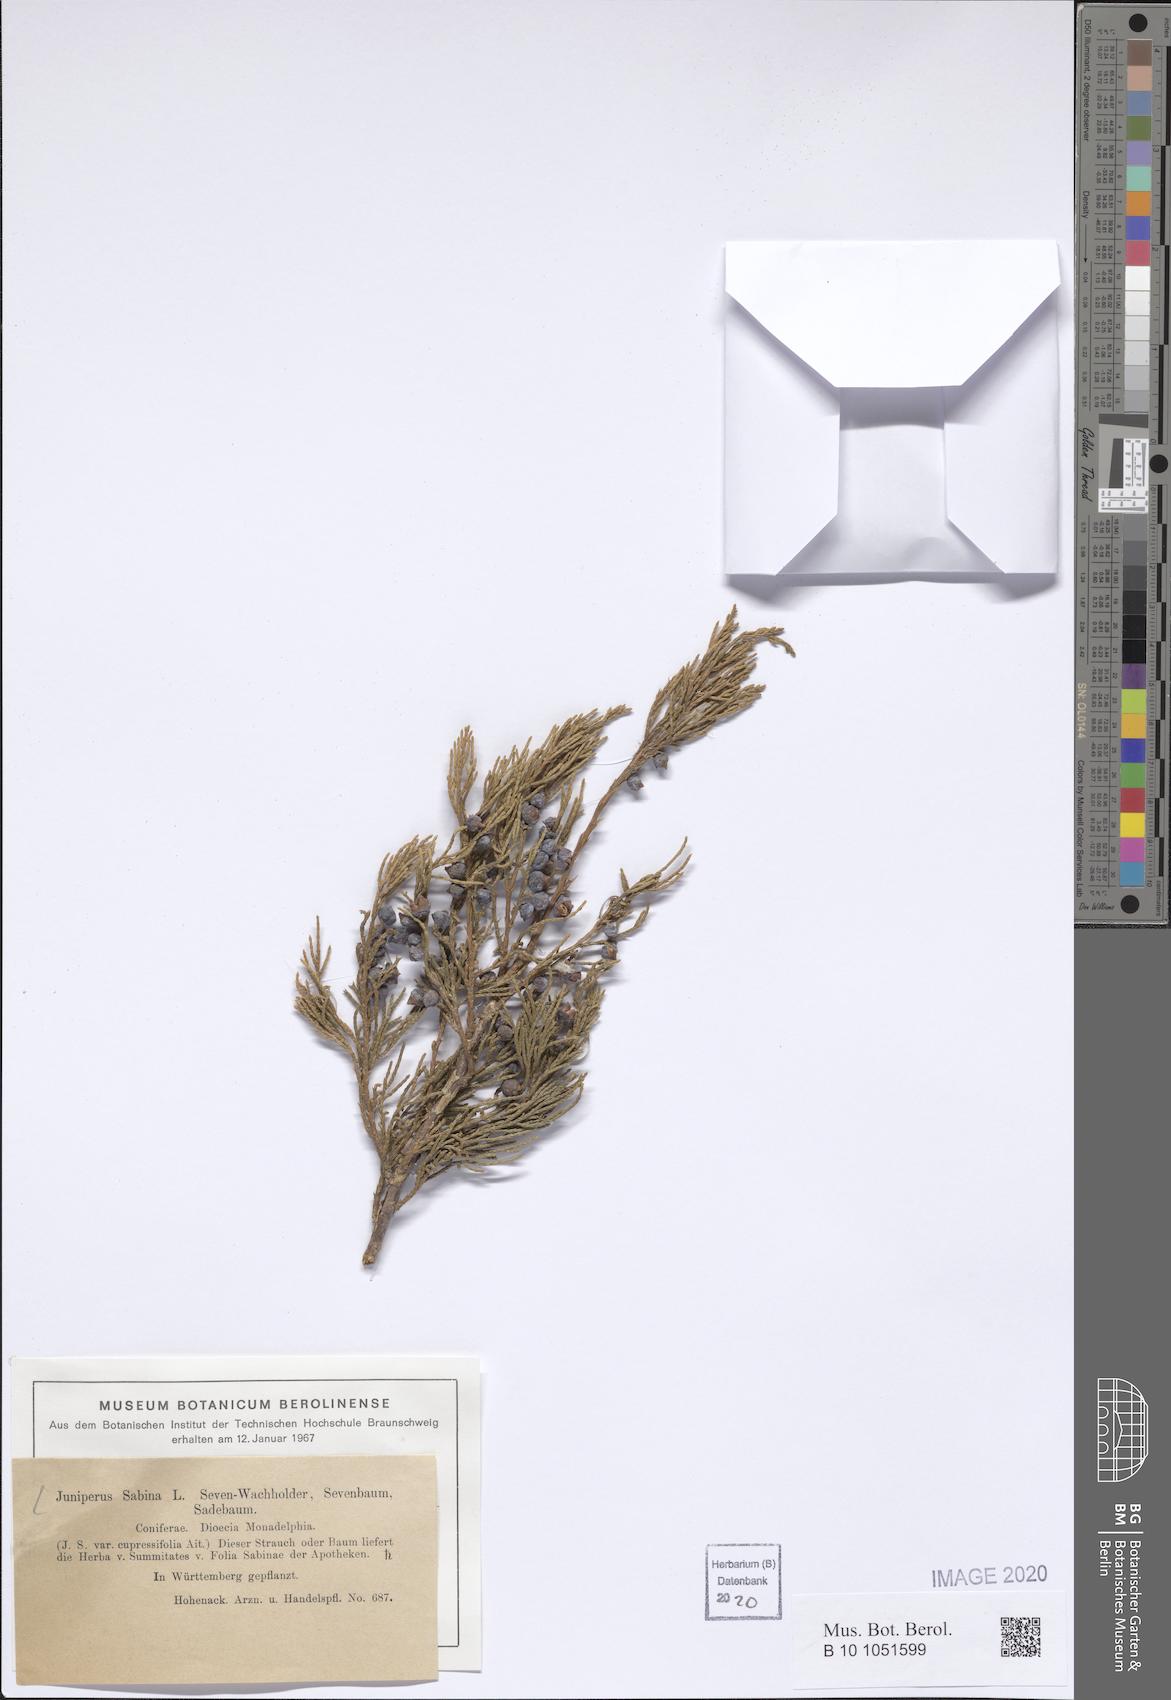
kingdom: Plantae
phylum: Tracheophyta
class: Pinopsida
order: Pinales
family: Cupressaceae
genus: Juniperus
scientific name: Juniperus sabina
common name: Savin
